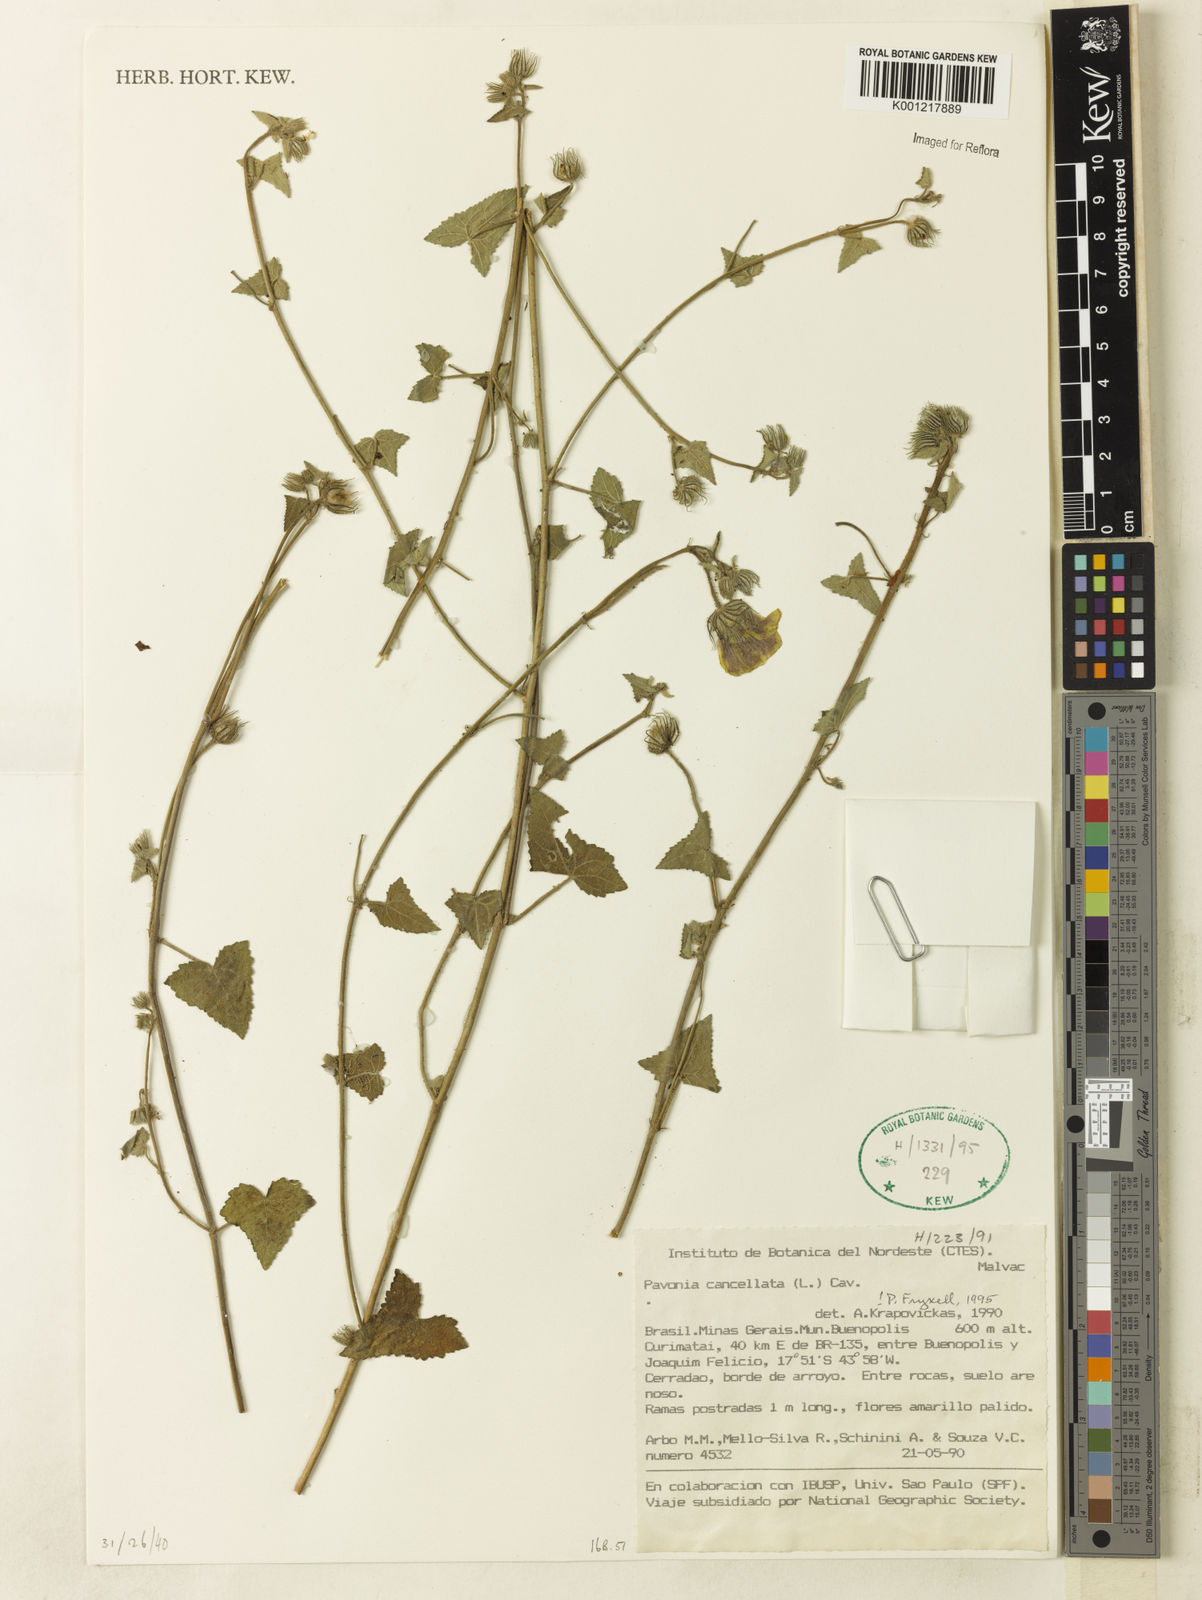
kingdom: Plantae
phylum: Tracheophyta
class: Magnoliopsida
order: Malvales
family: Malvaceae
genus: Pavonia
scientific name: Pavonia cancellata
